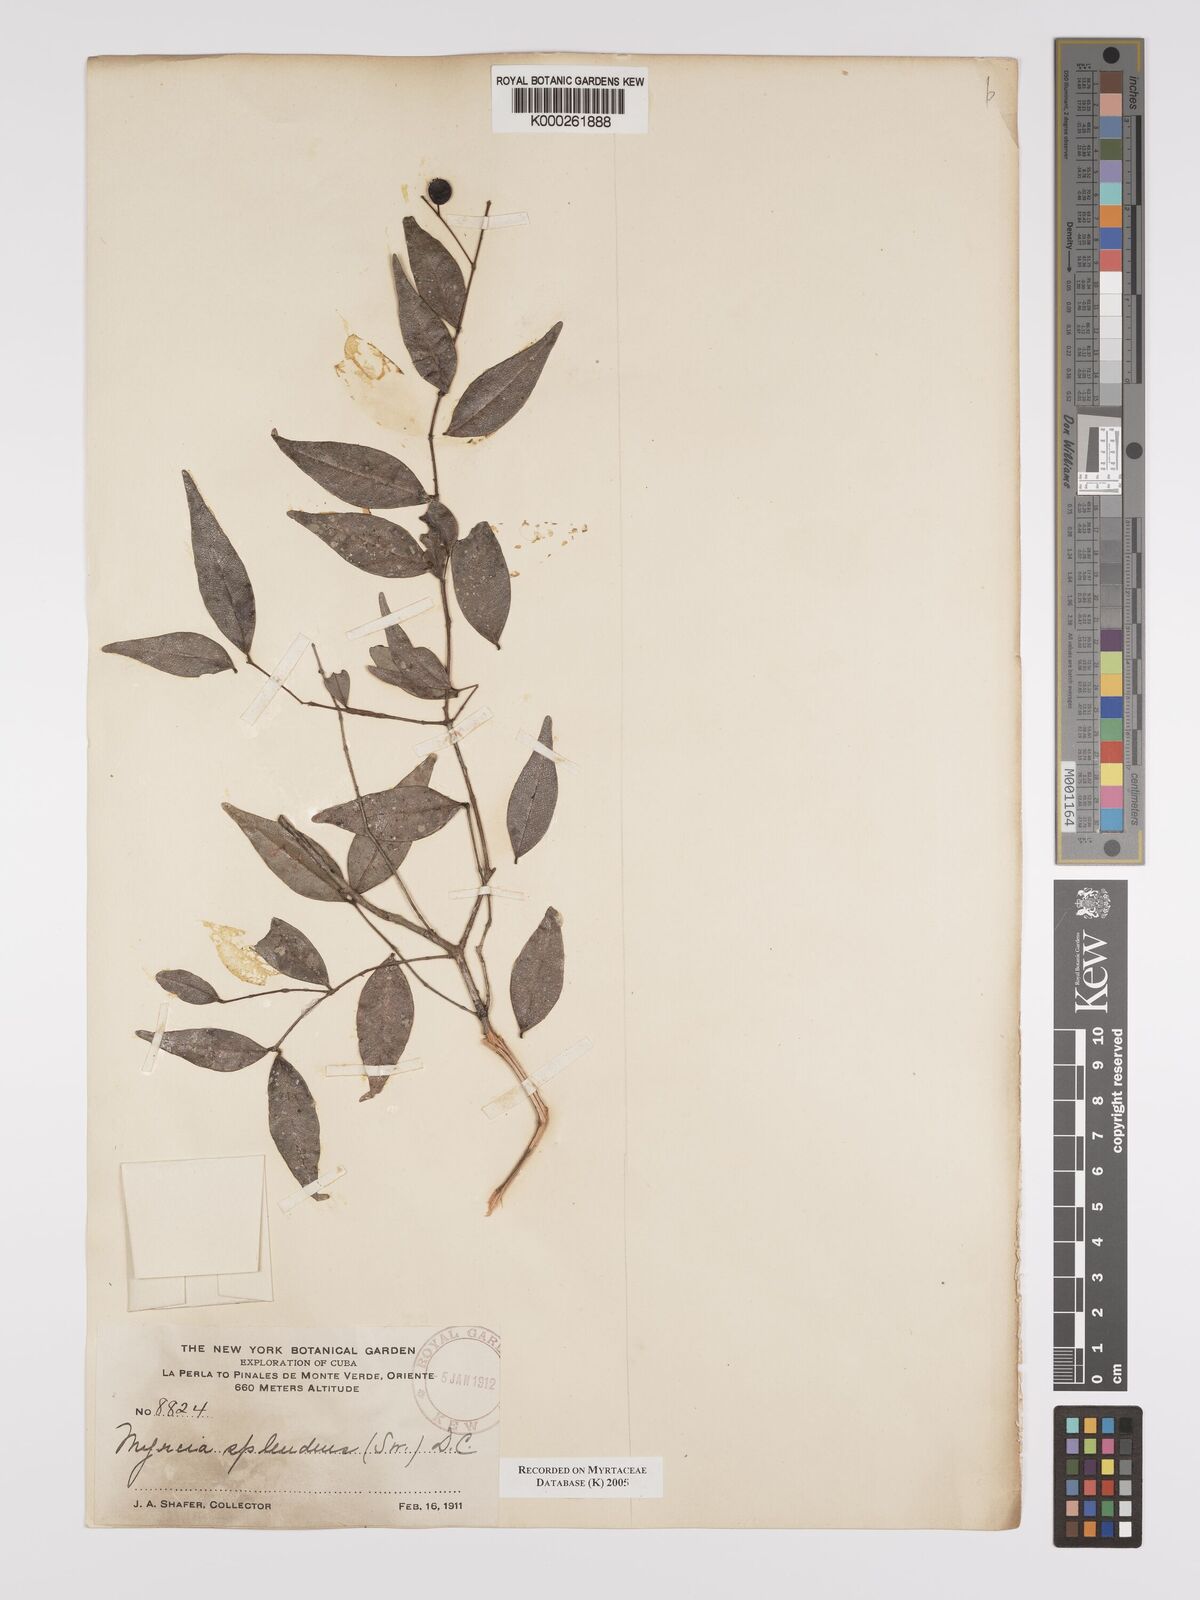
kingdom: Plantae
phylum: Tracheophyta
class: Magnoliopsida
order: Myrtales
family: Myrtaceae
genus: Myrcia
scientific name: Myrcia splendens
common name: Surinam cherry
